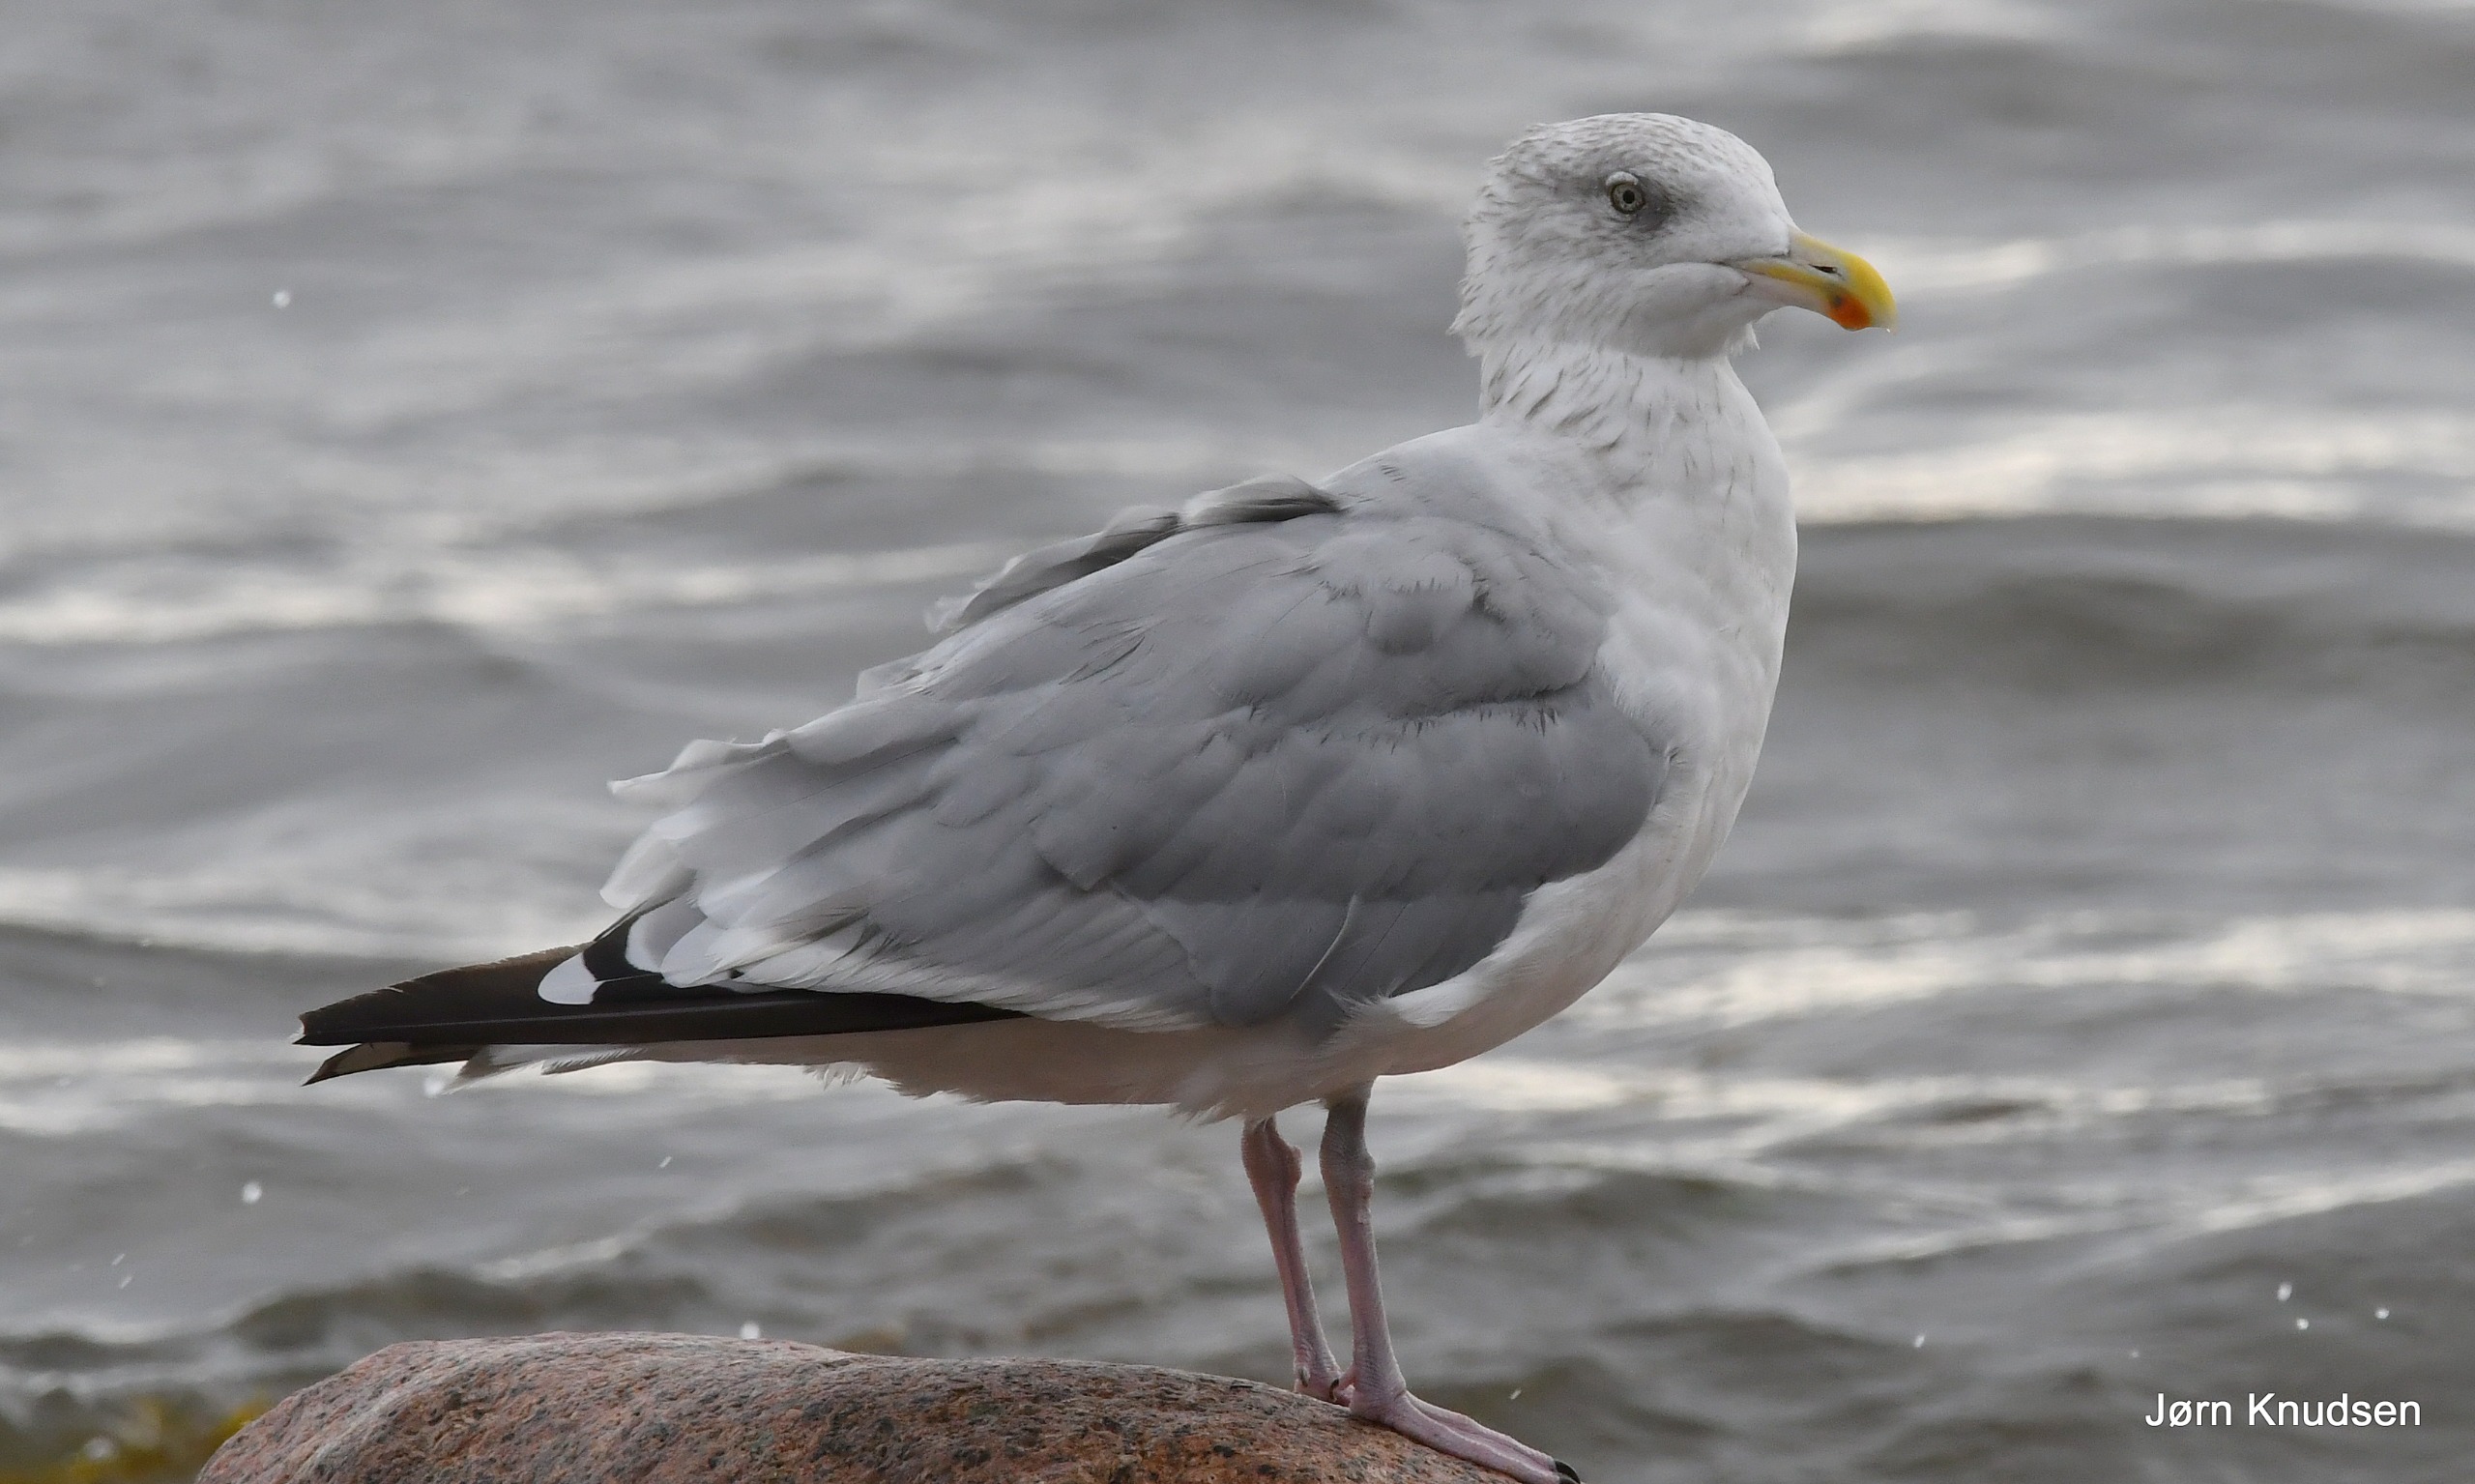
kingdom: Animalia
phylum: Chordata
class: Aves
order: Charadriiformes
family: Laridae
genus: Larus
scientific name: Larus argentatus
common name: Sølvmåge
